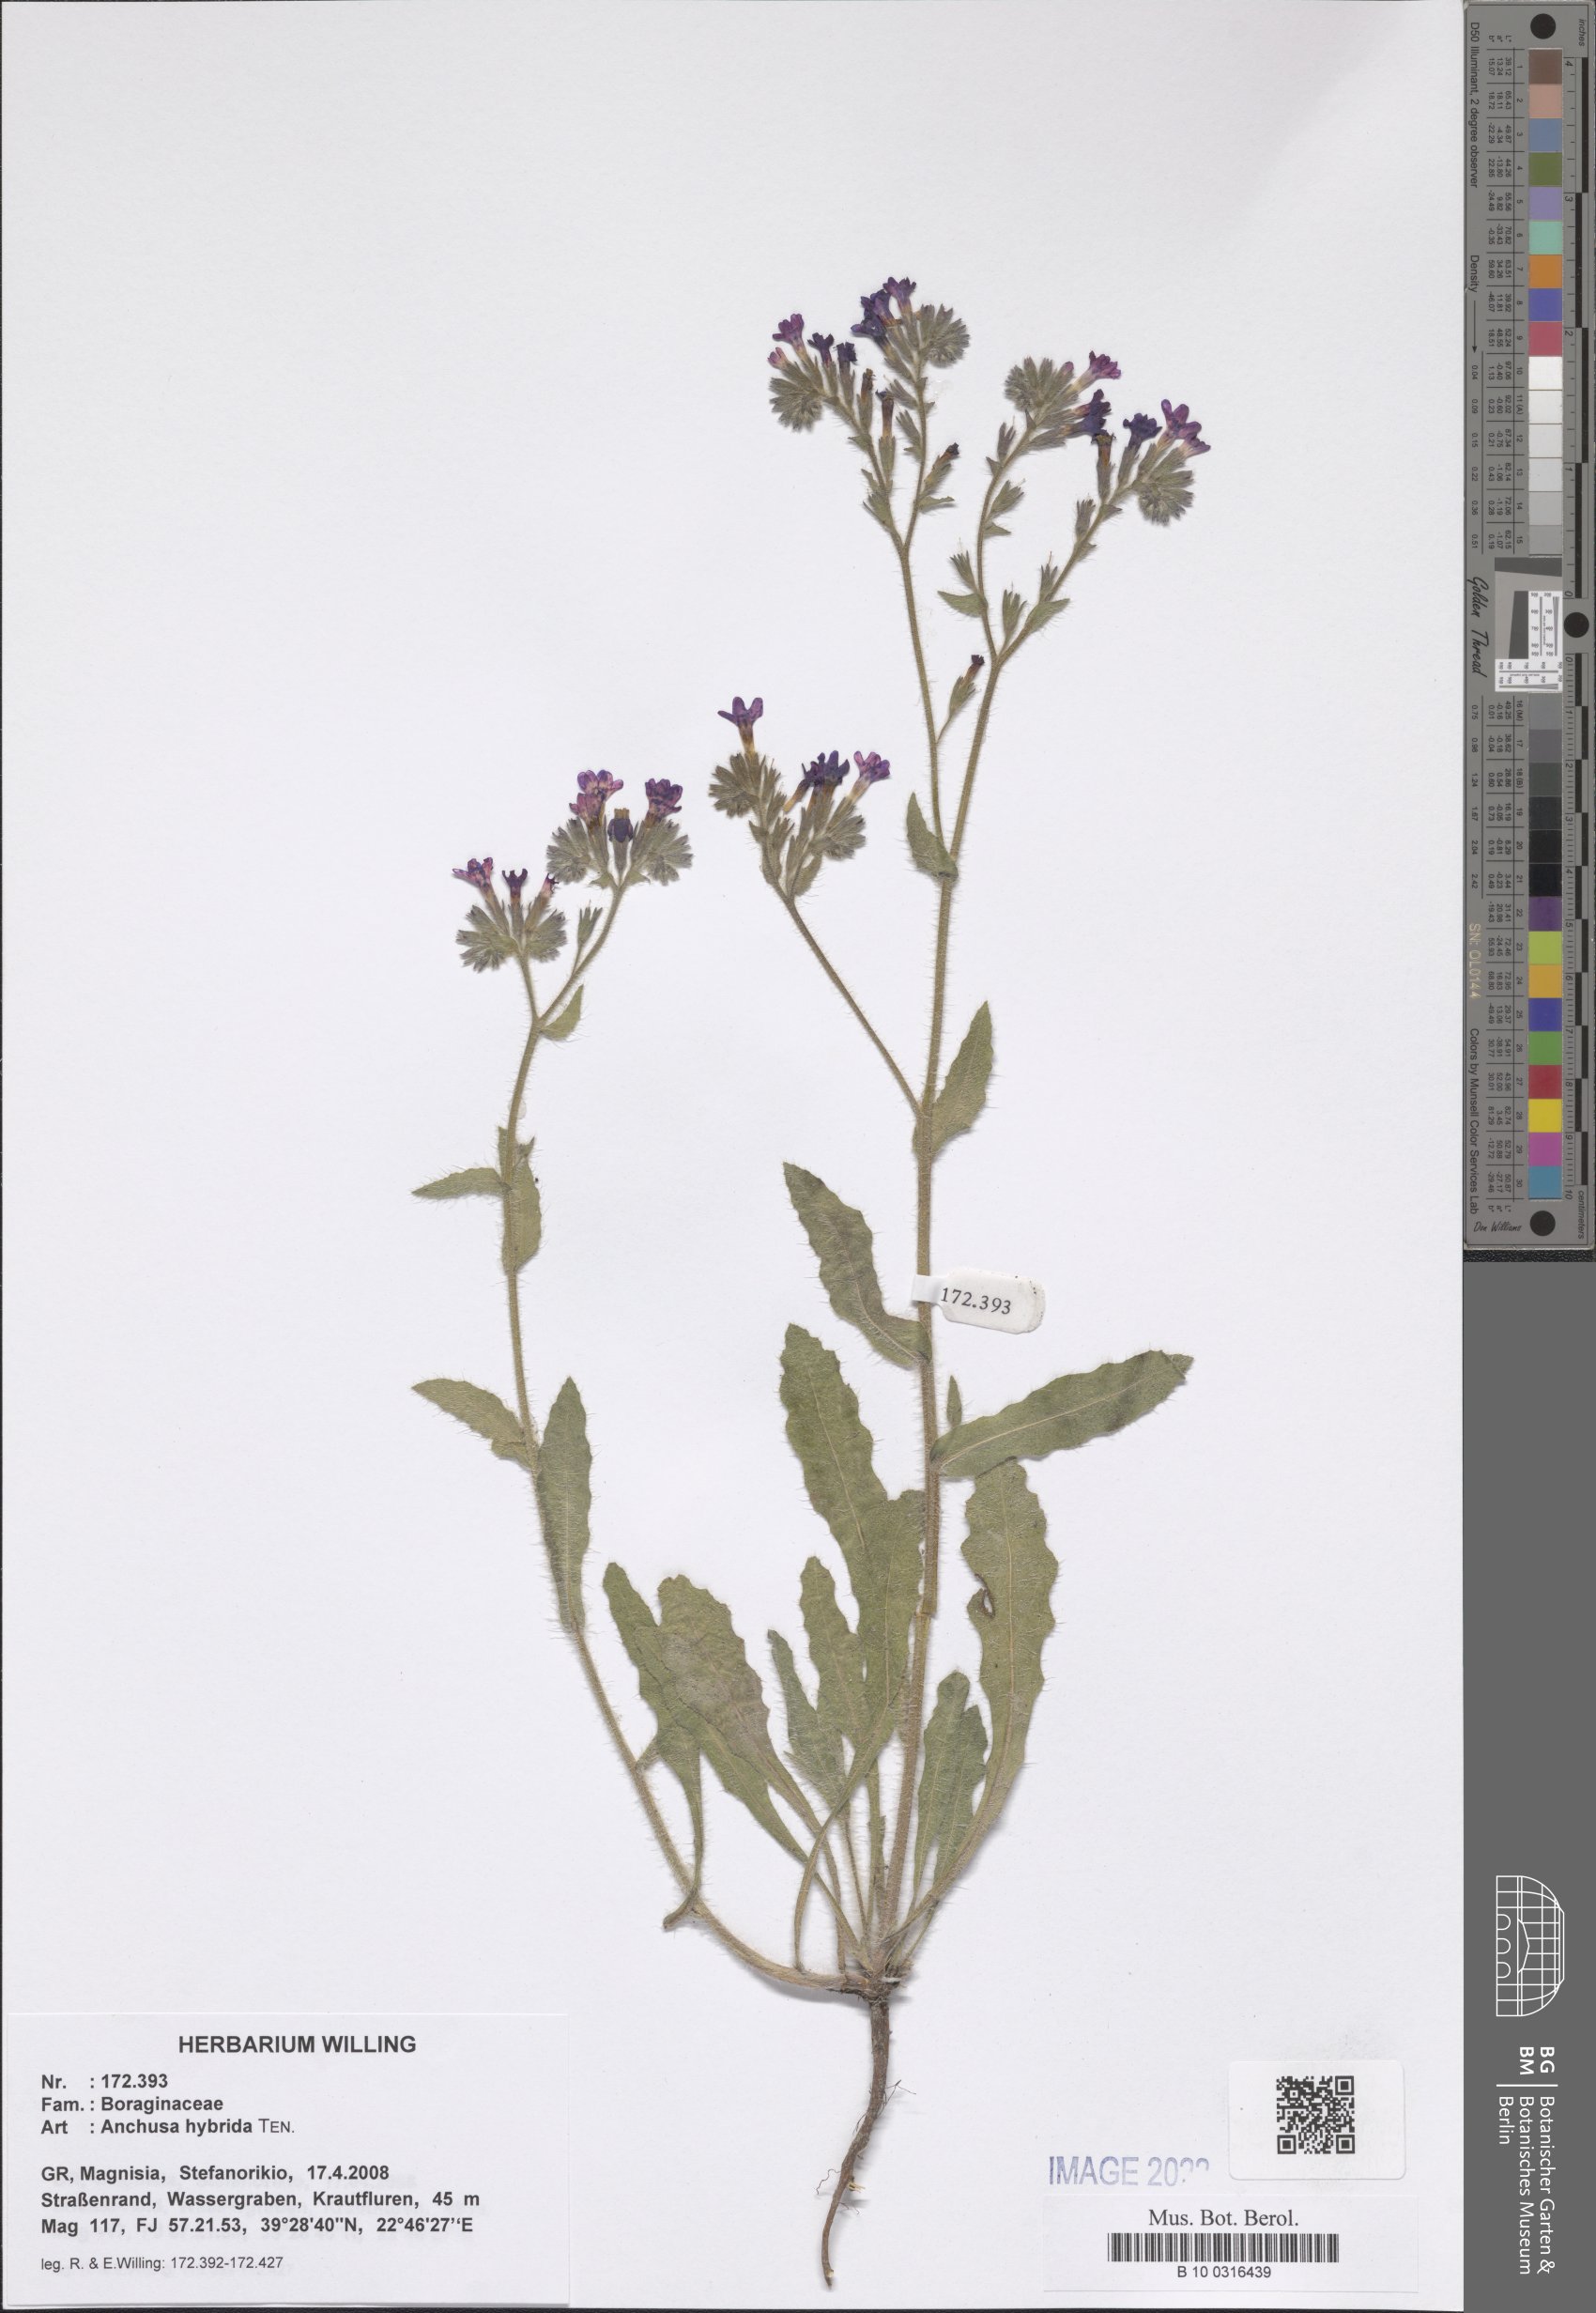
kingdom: Plantae
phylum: Tracheophyta
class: Magnoliopsida
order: Boraginales
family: Boraginaceae
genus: Anchusa
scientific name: Anchusa hybrida
